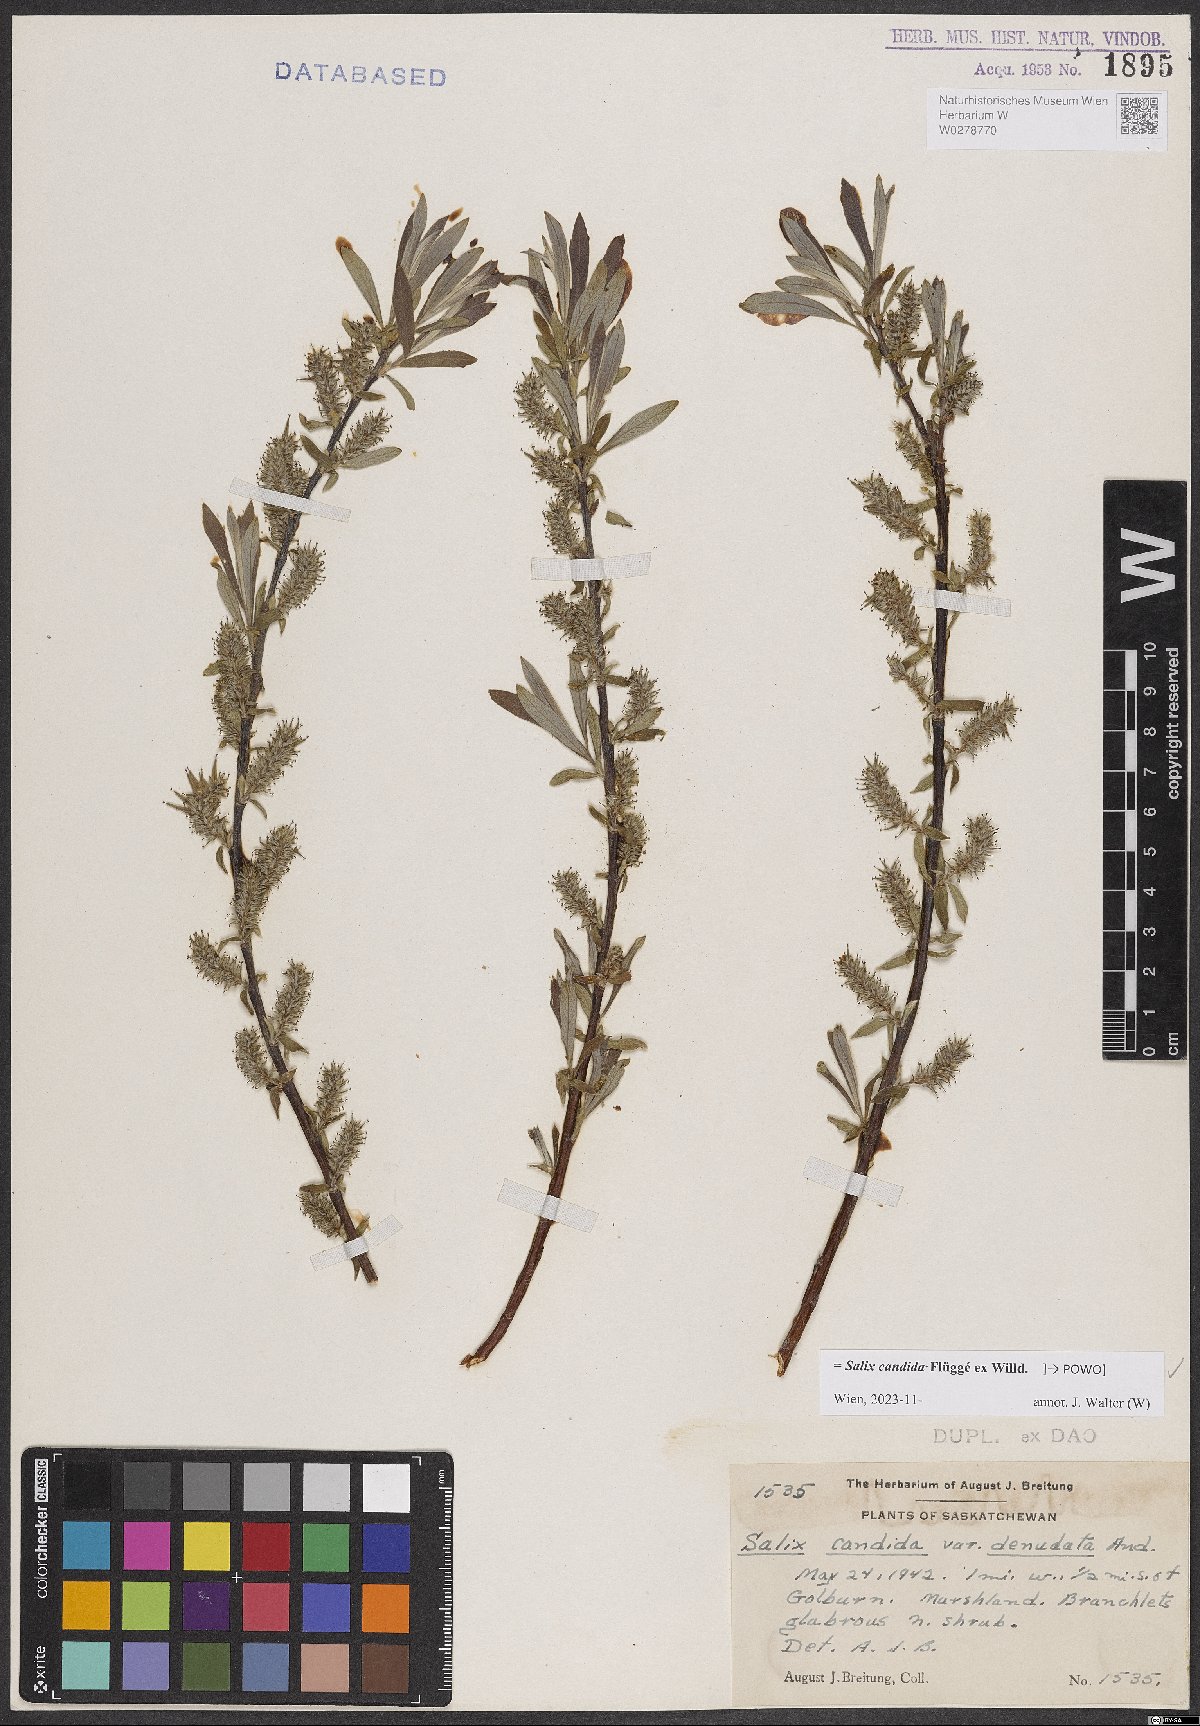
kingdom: Plantae
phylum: Tracheophyta
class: Magnoliopsida
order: Malpighiales
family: Salicaceae
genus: Salix
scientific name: Salix candida
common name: Hoary willow
